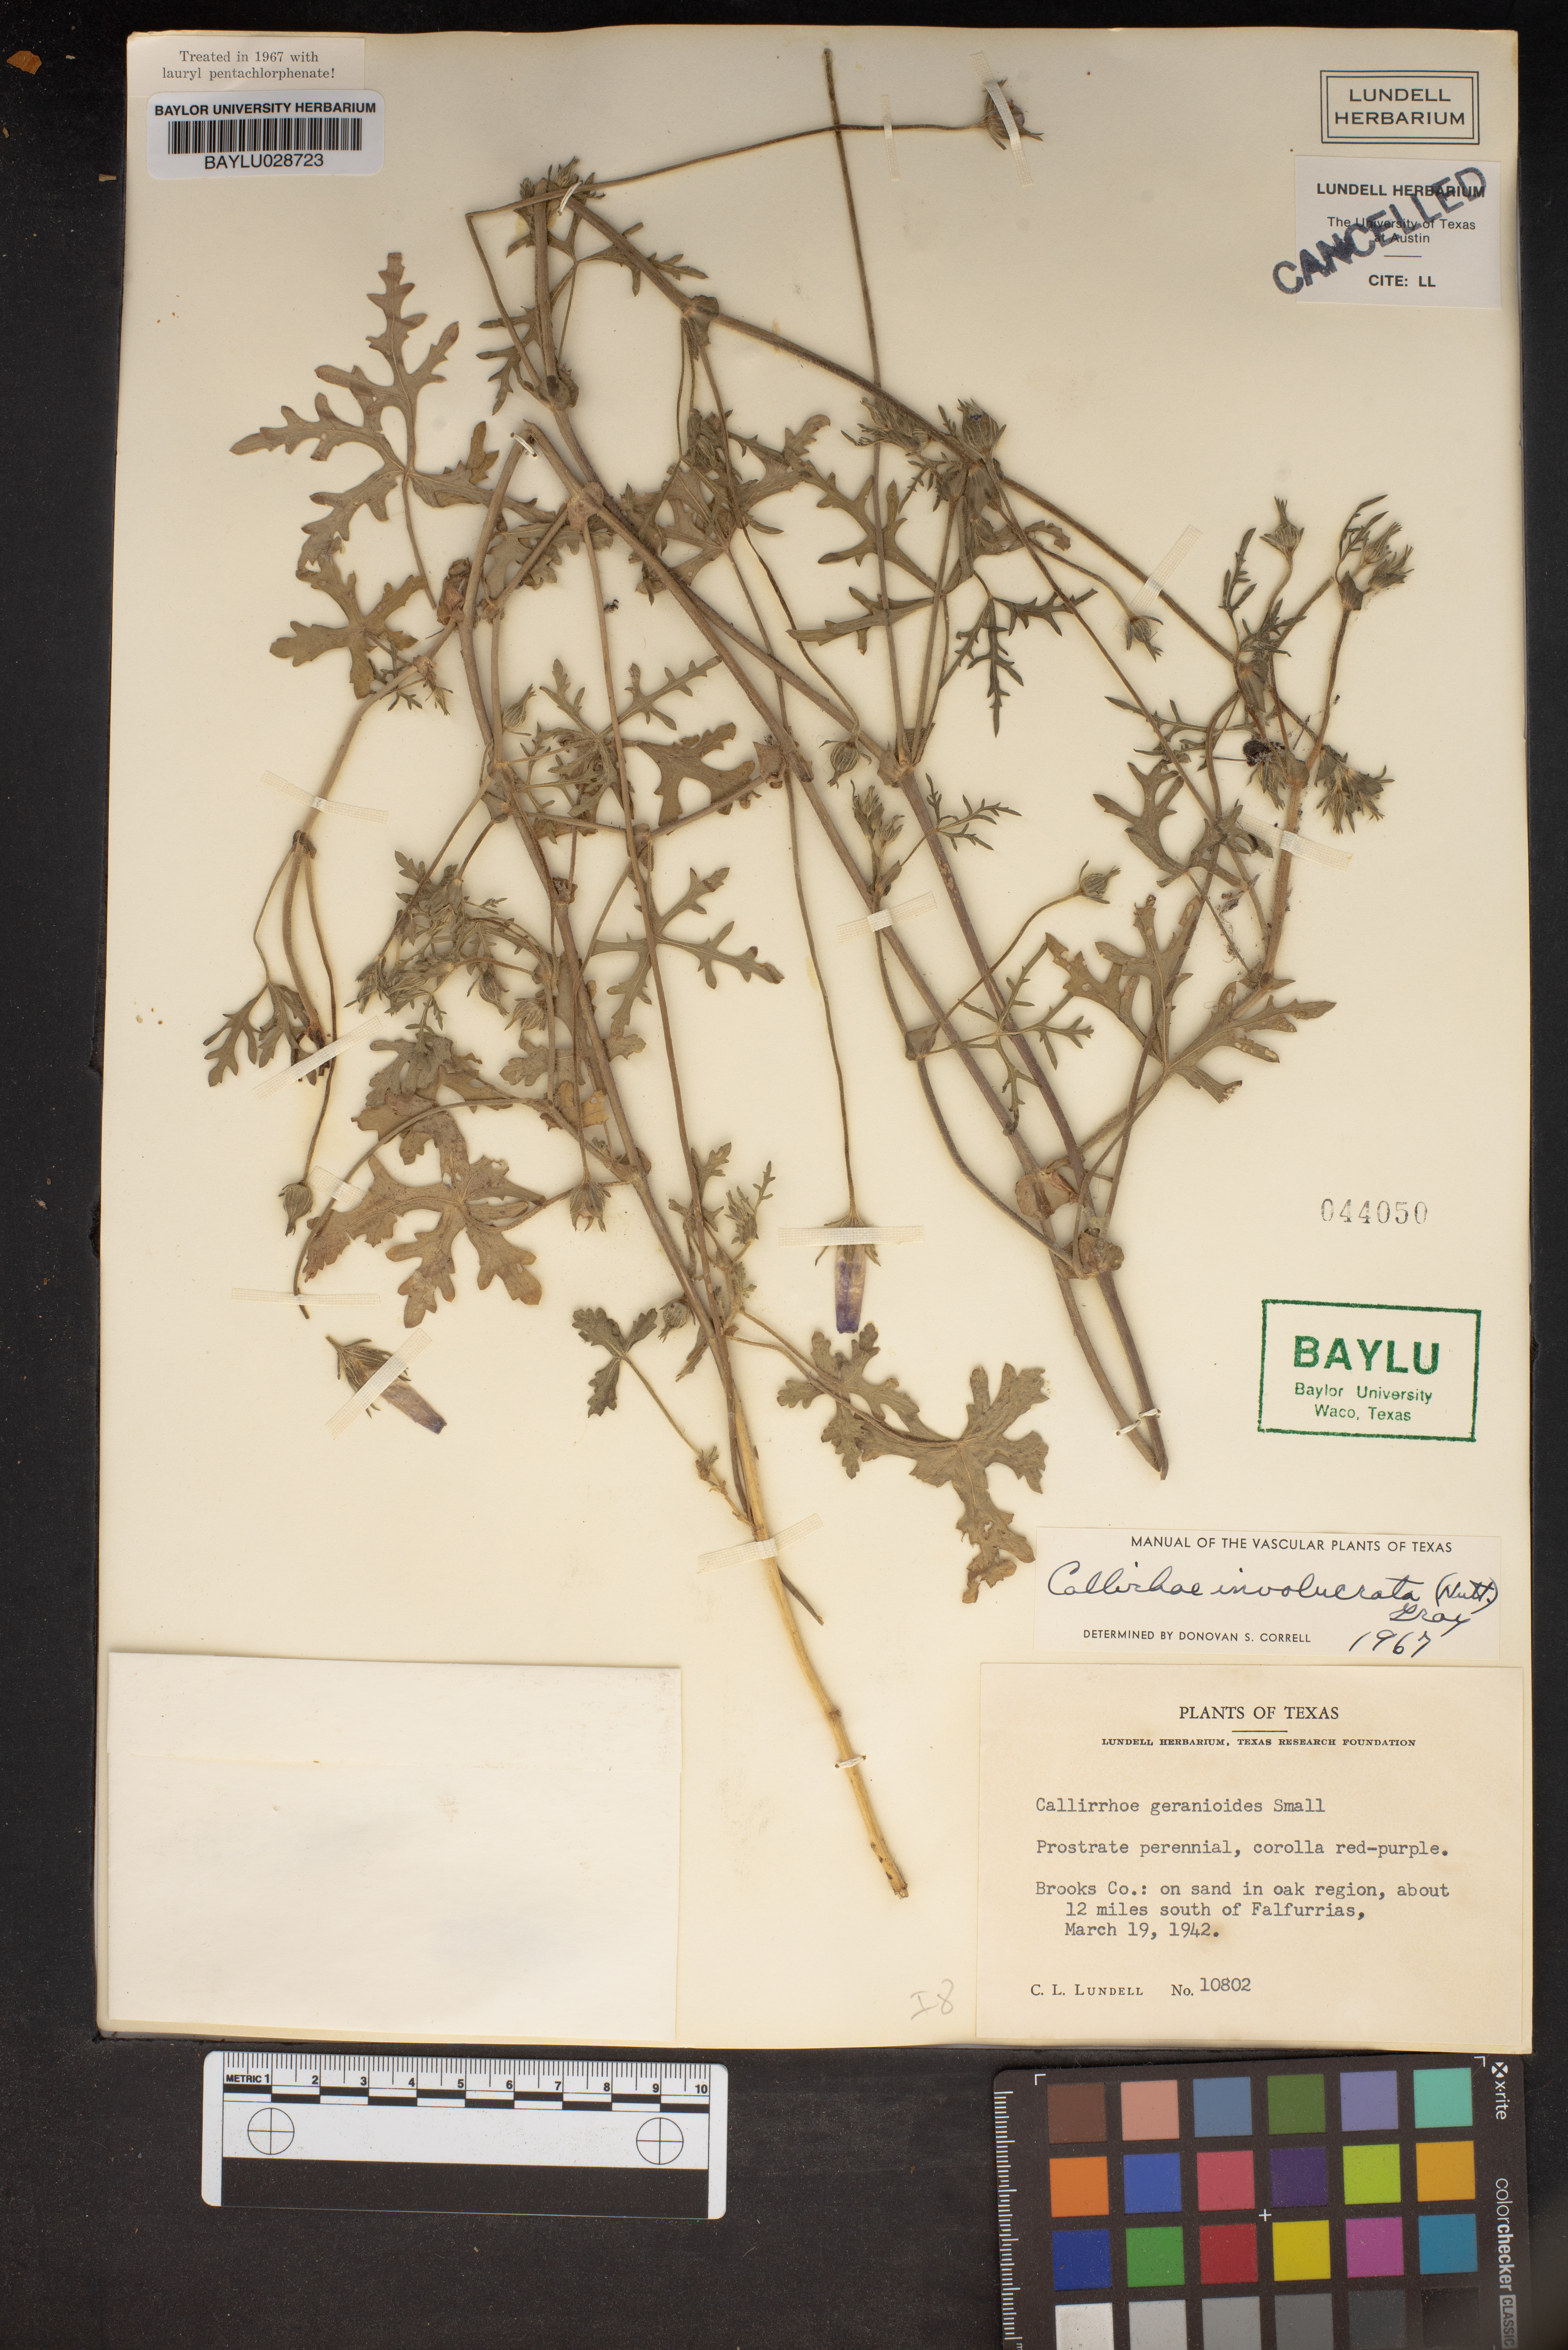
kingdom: Plantae
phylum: Tracheophyta
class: Magnoliopsida
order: Malvales
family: Malvaceae
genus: Callirhoe
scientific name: Callirhoe involucrata
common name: Purple poppy-mallow
